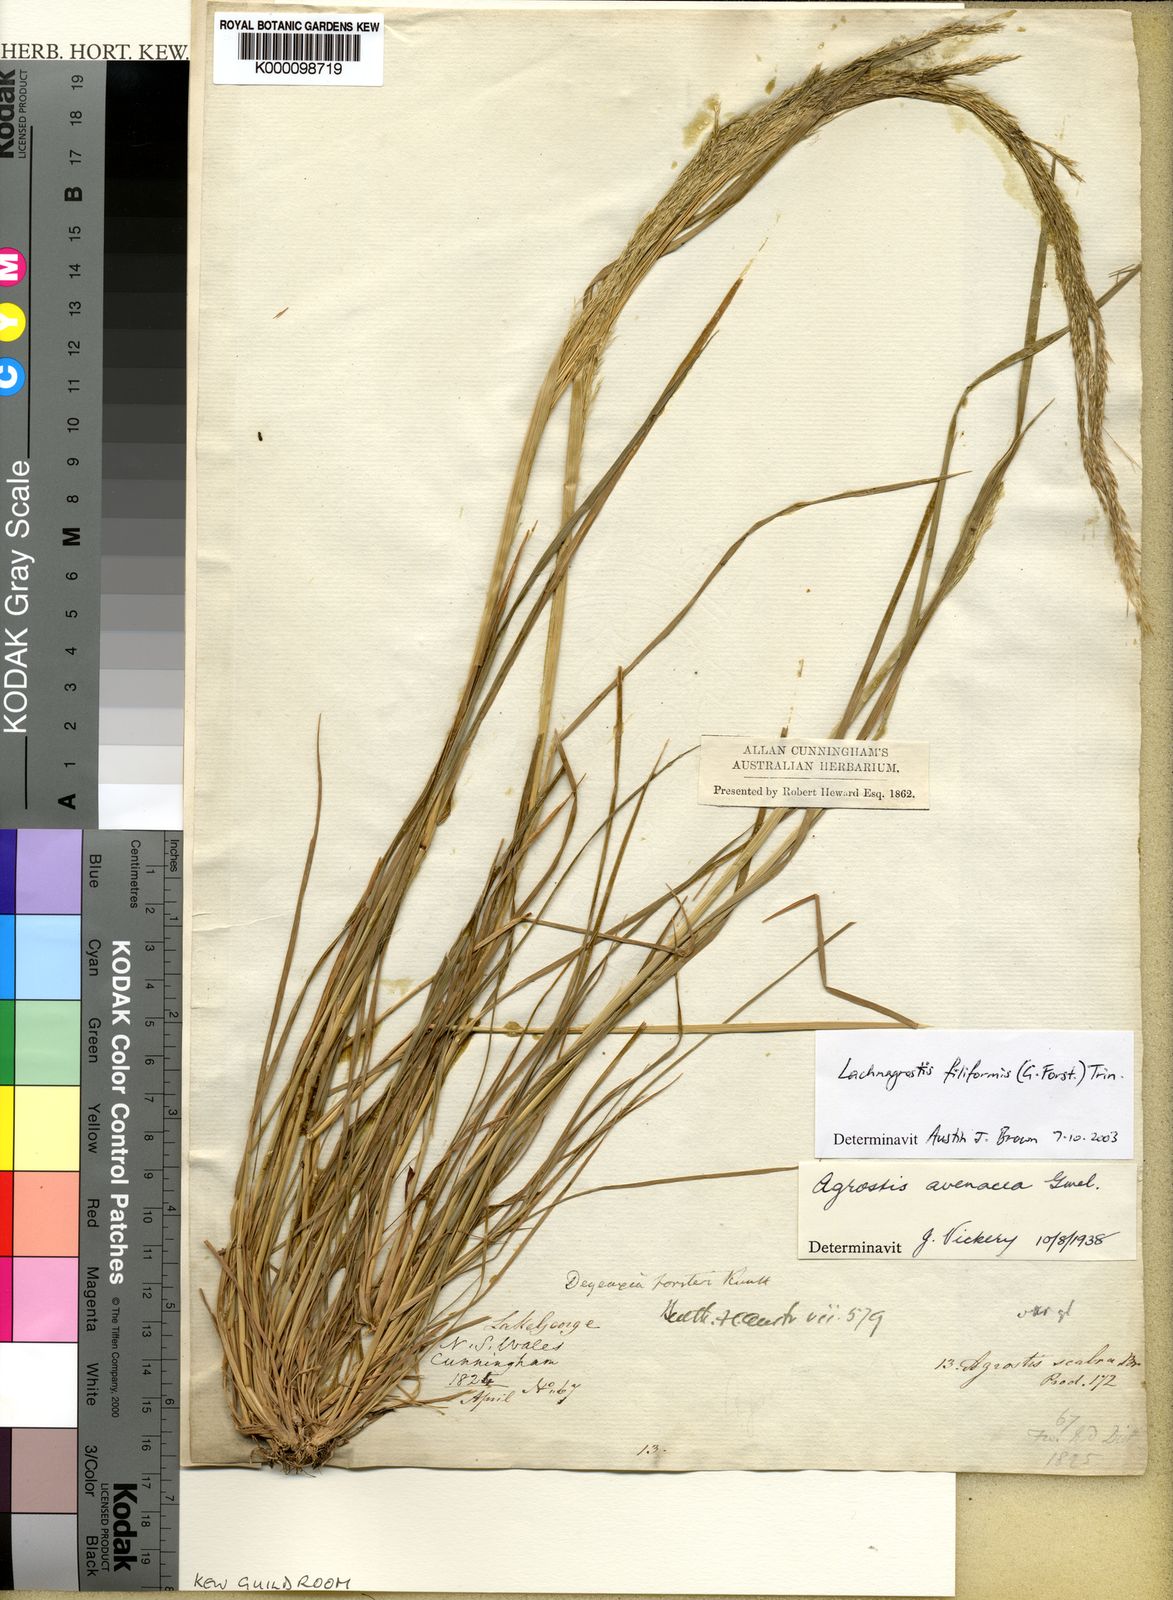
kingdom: Plantae
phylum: Tracheophyta
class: Liliopsida
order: Poales
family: Poaceae
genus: Lachnagrostis
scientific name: Lachnagrostis filiformis
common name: Bentgrass
